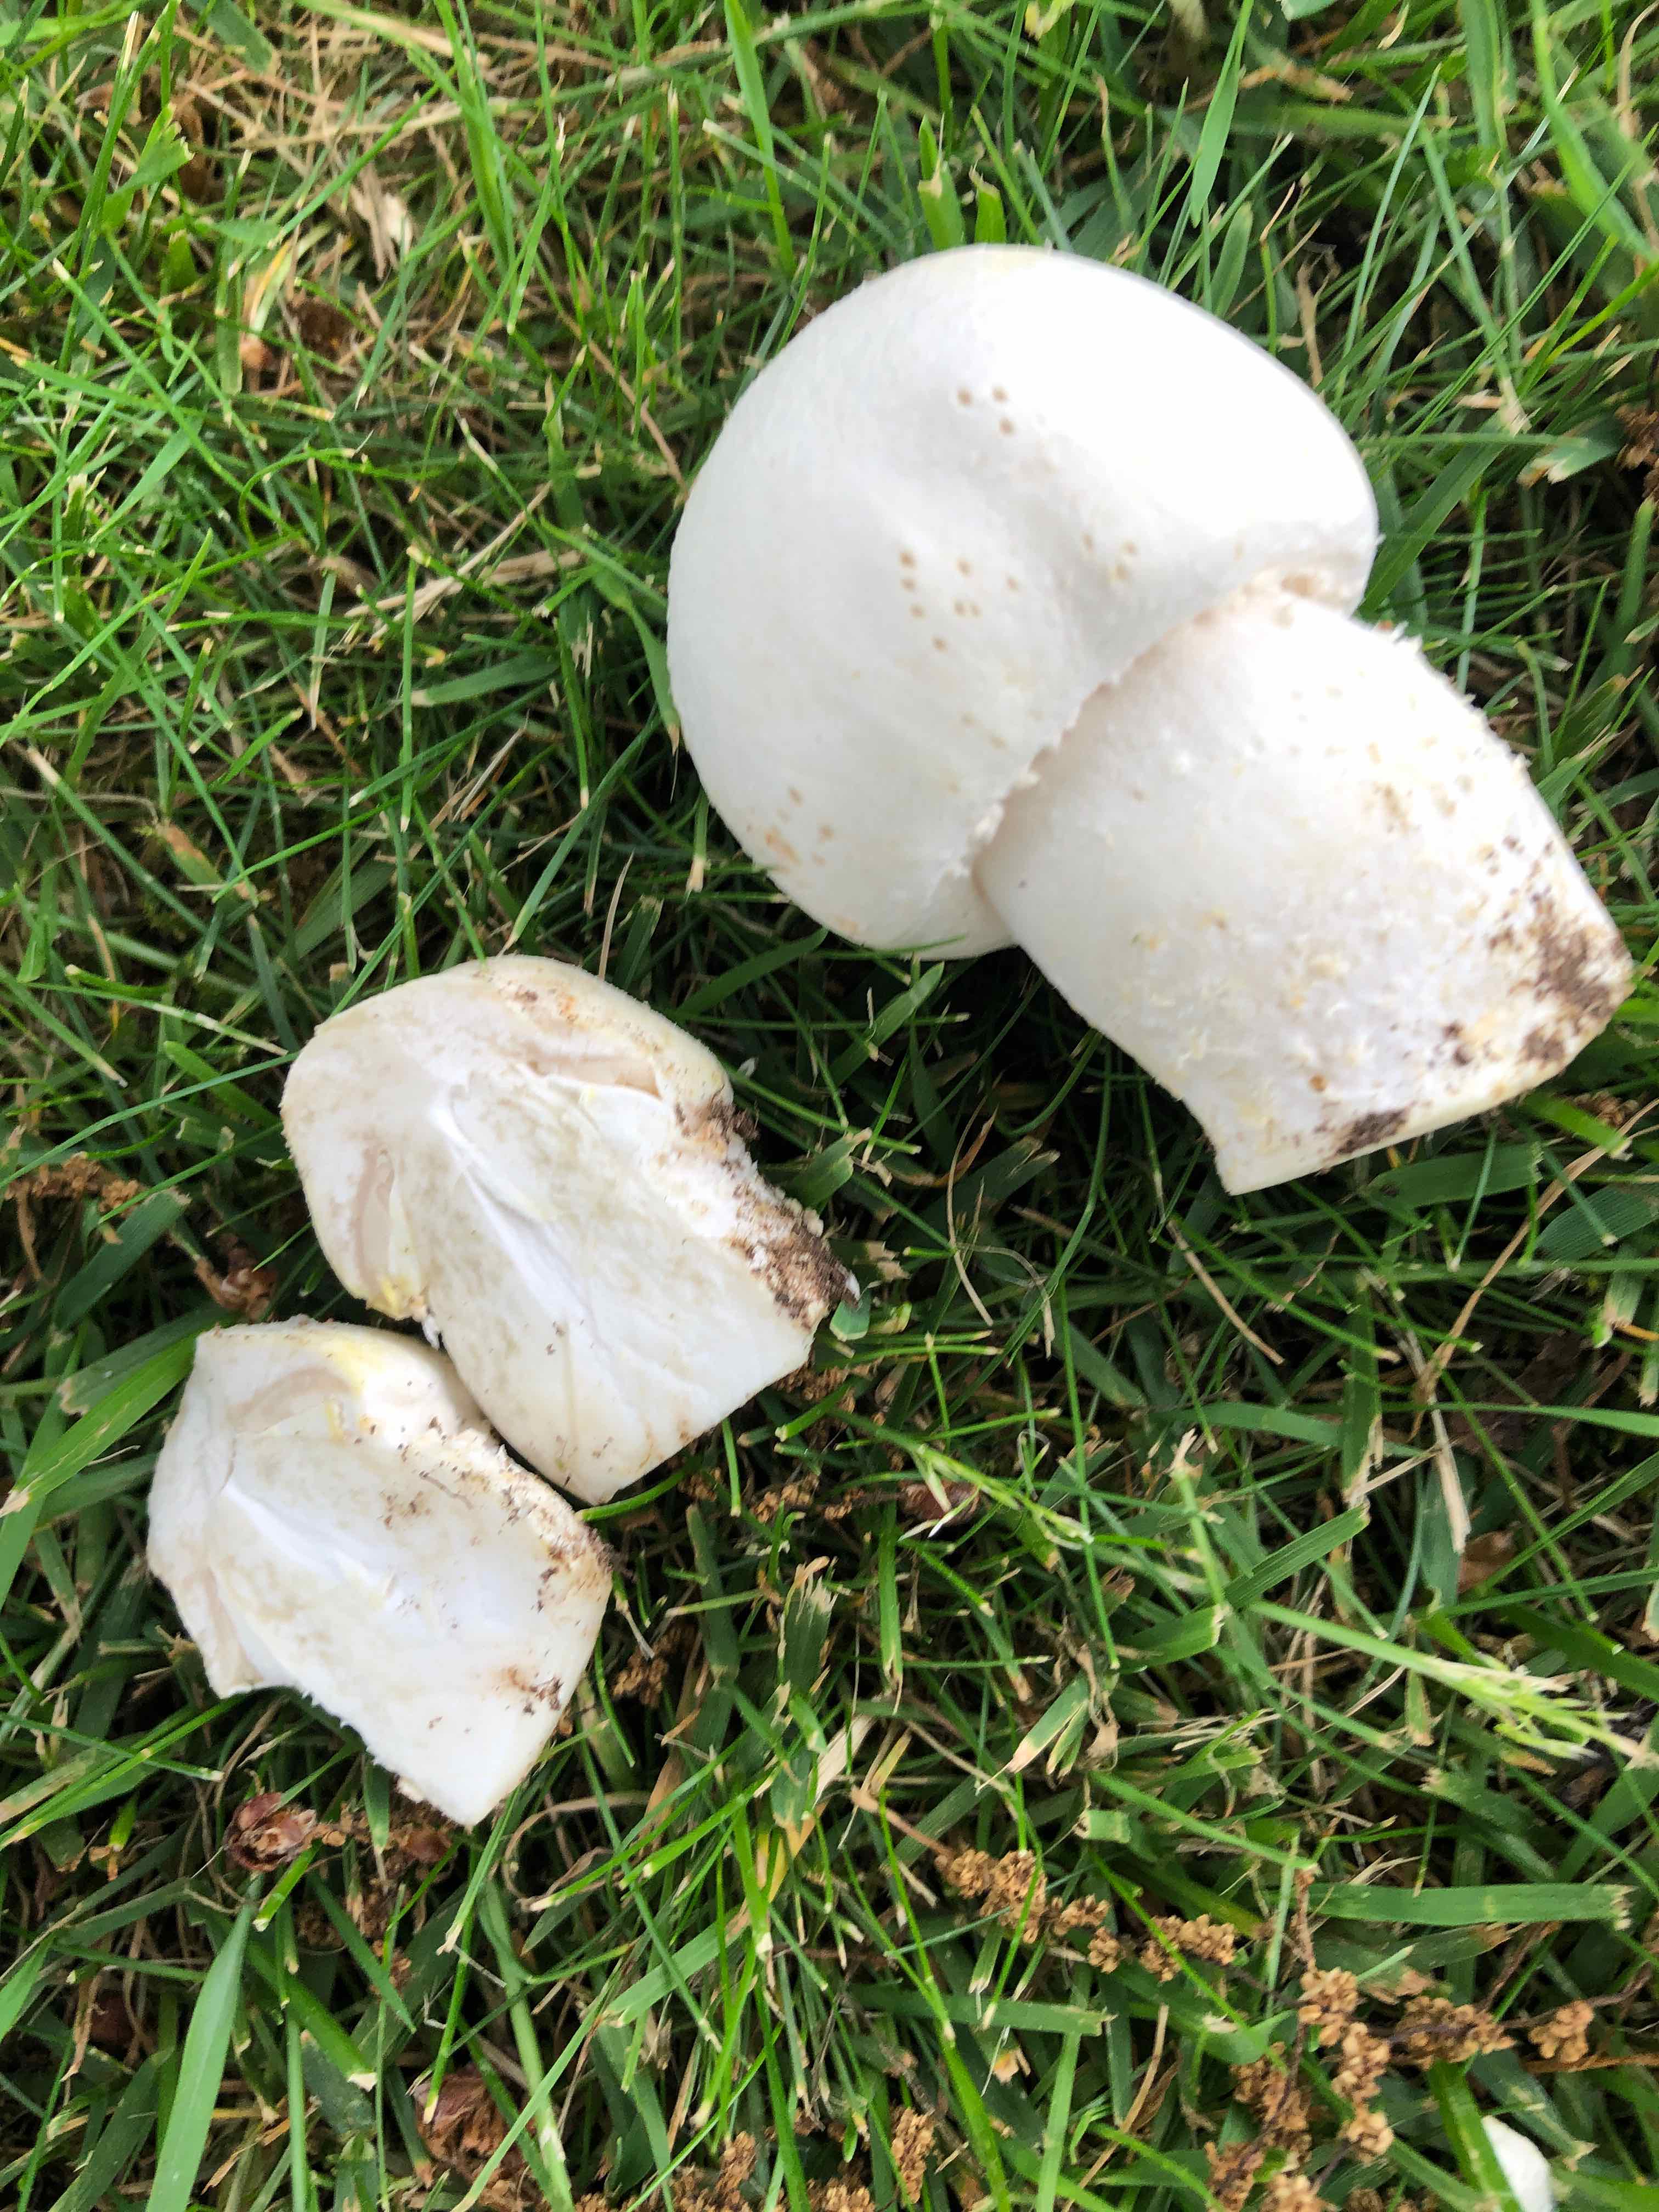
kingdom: Fungi
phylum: Basidiomycota
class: Agaricomycetes
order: Agaricales
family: Agaricaceae
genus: Agaricus
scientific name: Agaricus
